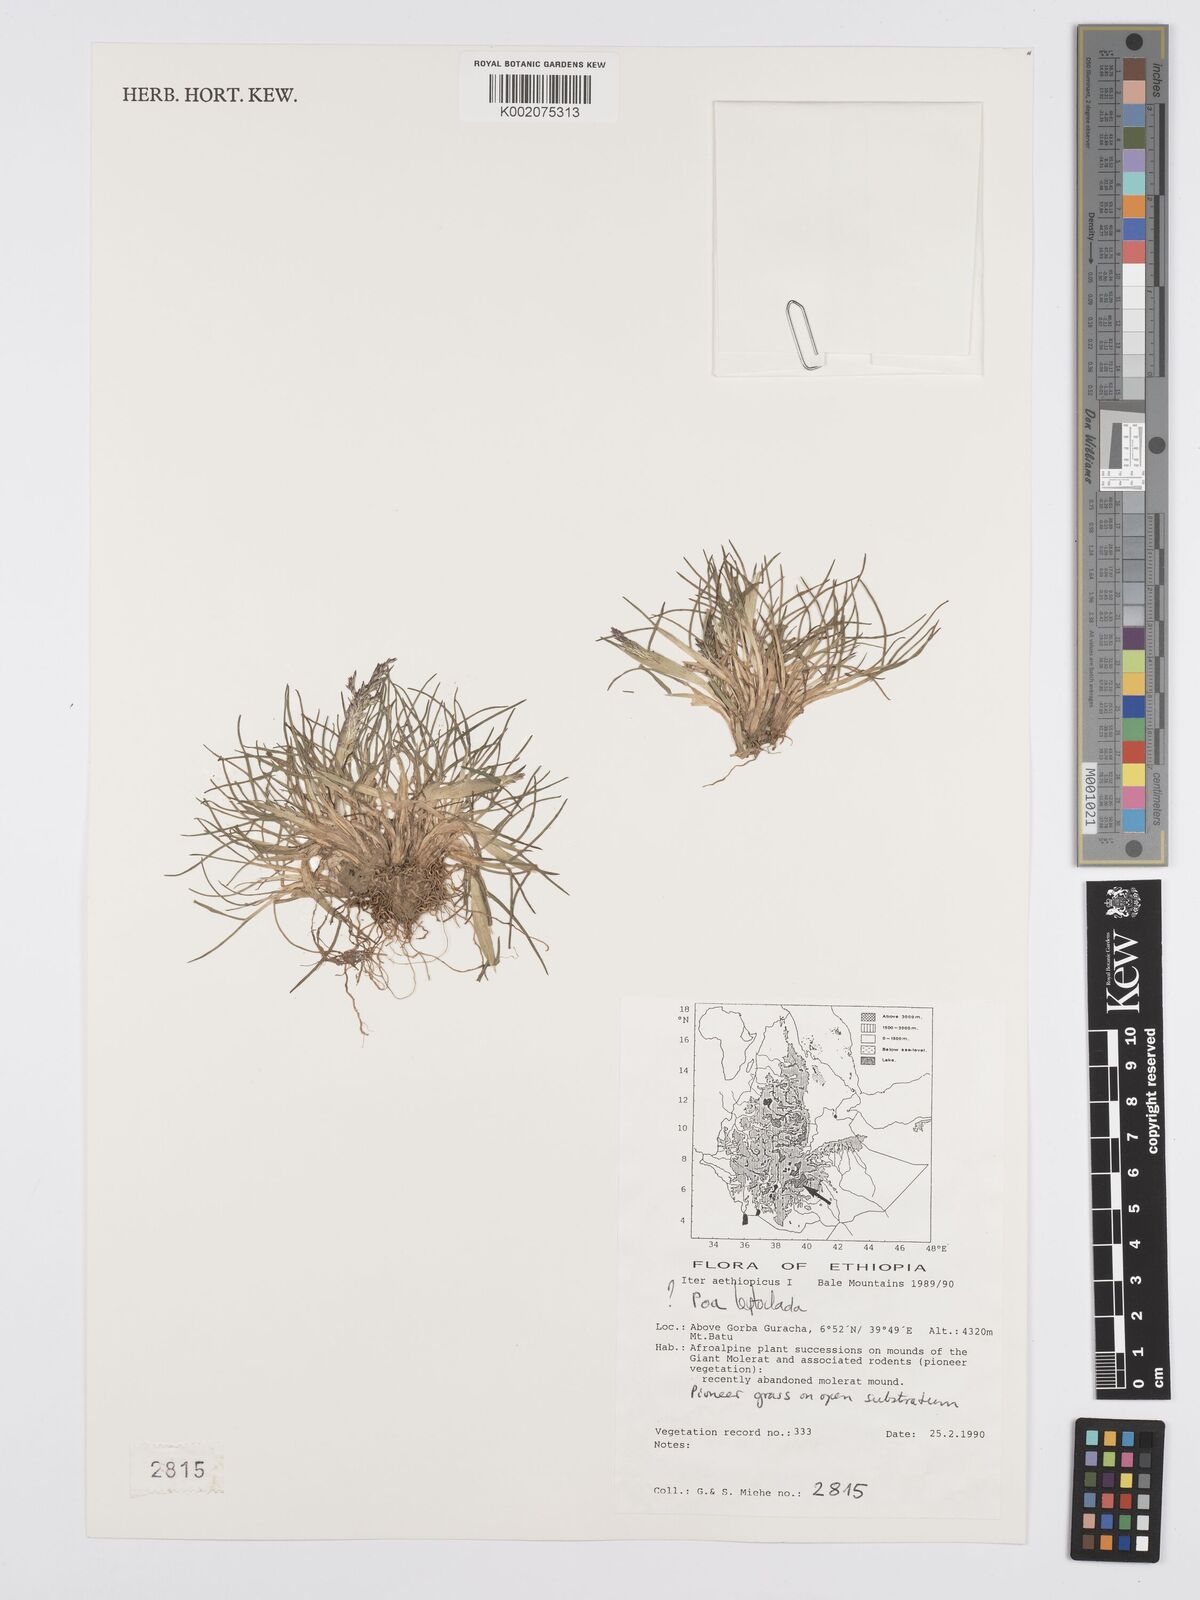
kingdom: Plantae
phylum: Tracheophyta
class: Liliopsida
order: Poales
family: Poaceae
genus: Poa
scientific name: Poa leptoclada
